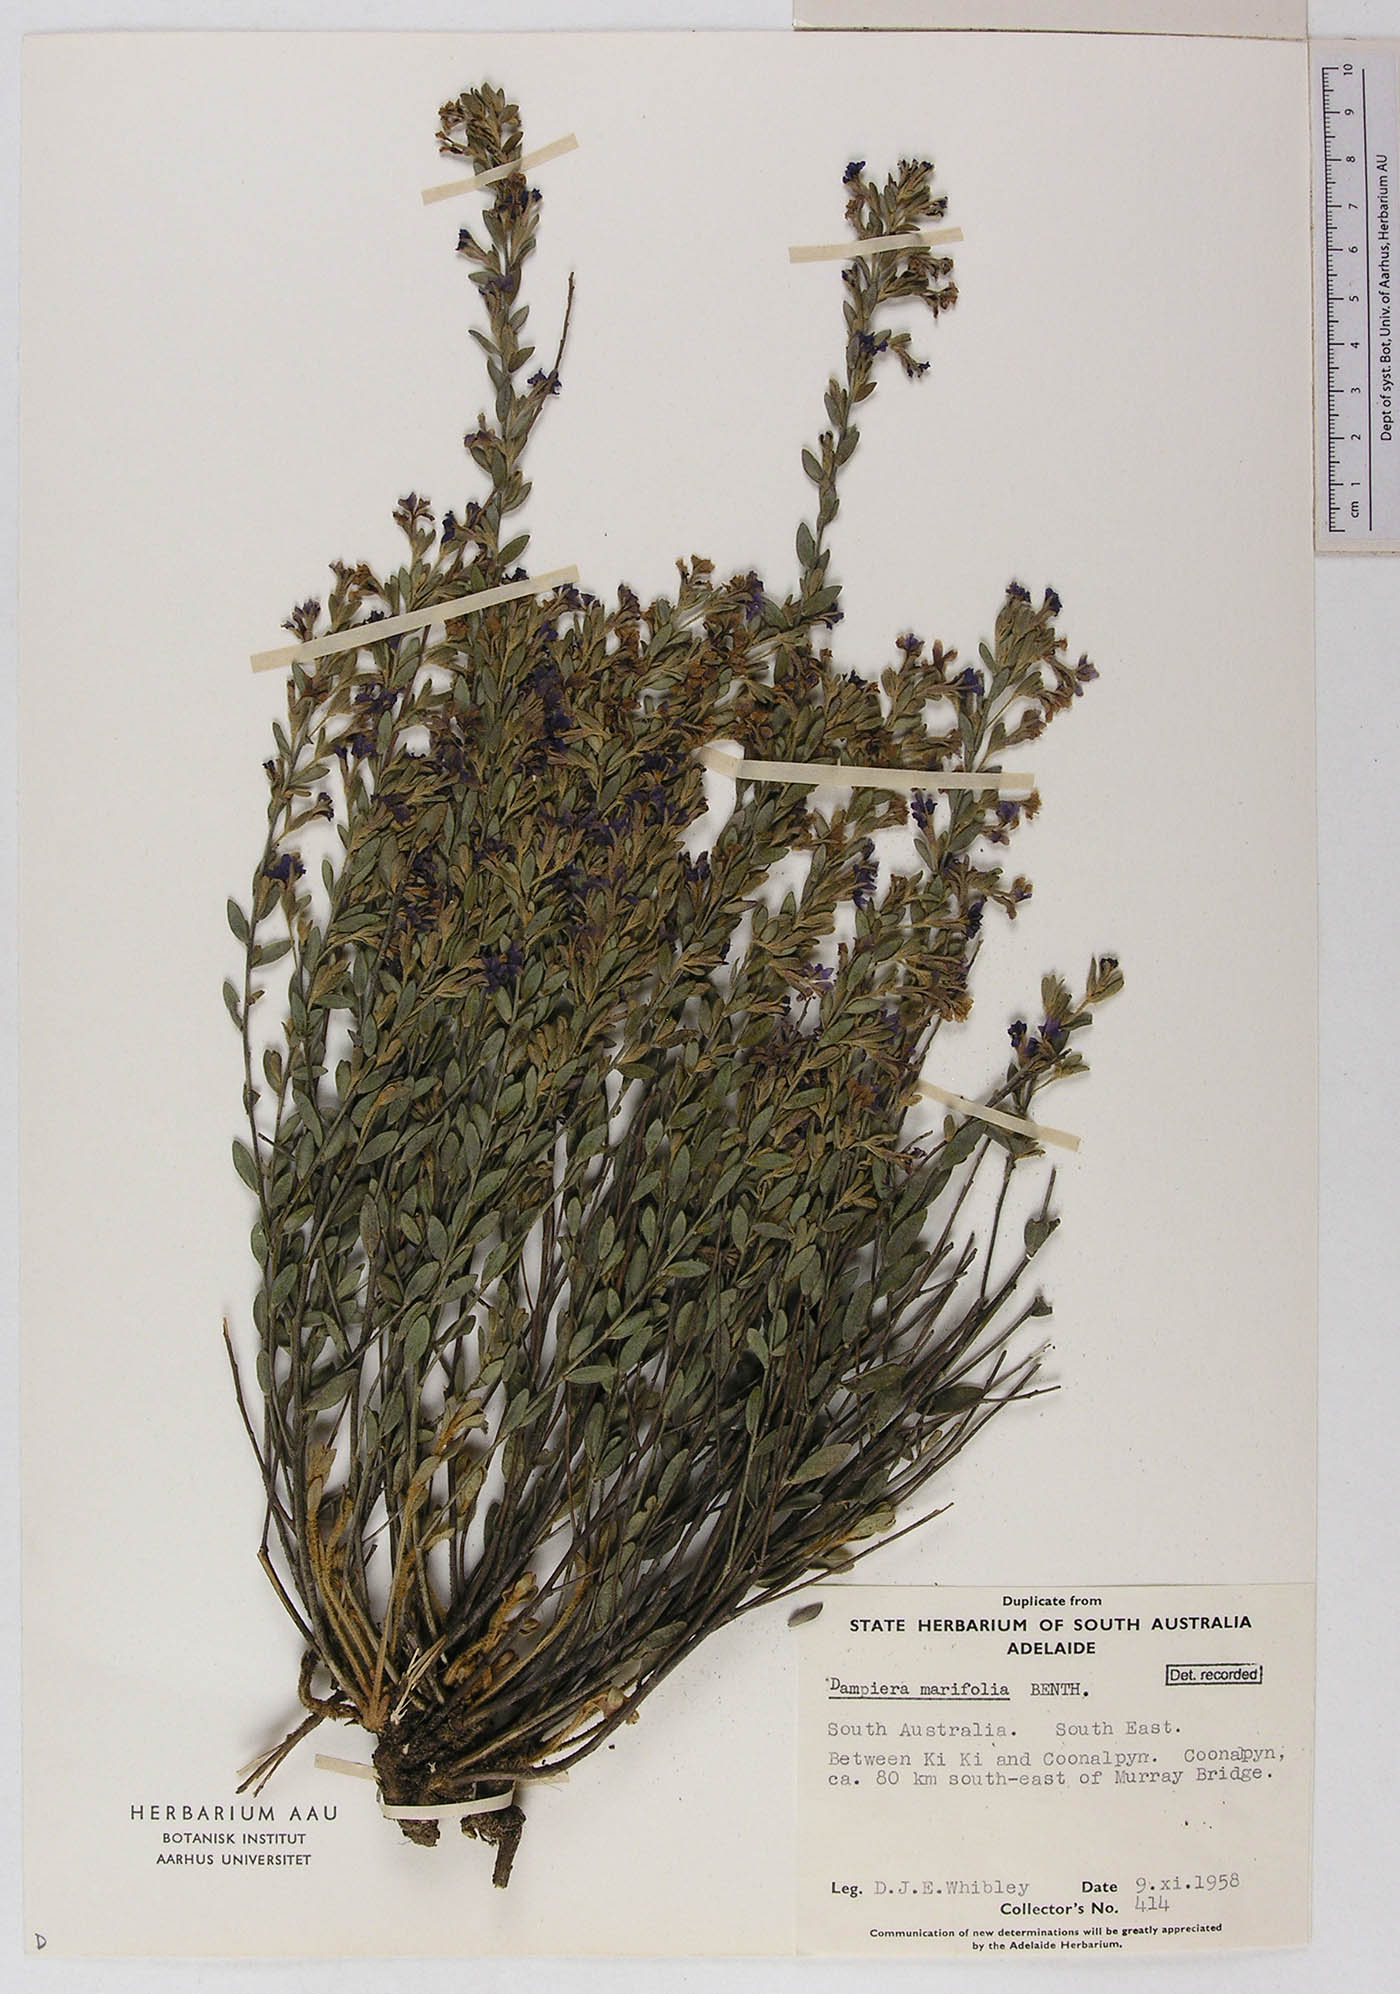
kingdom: Plantae
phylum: Tracheophyta
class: Magnoliopsida
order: Asterales
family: Goodeniaceae
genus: Dampiera
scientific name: Dampiera marifolia
